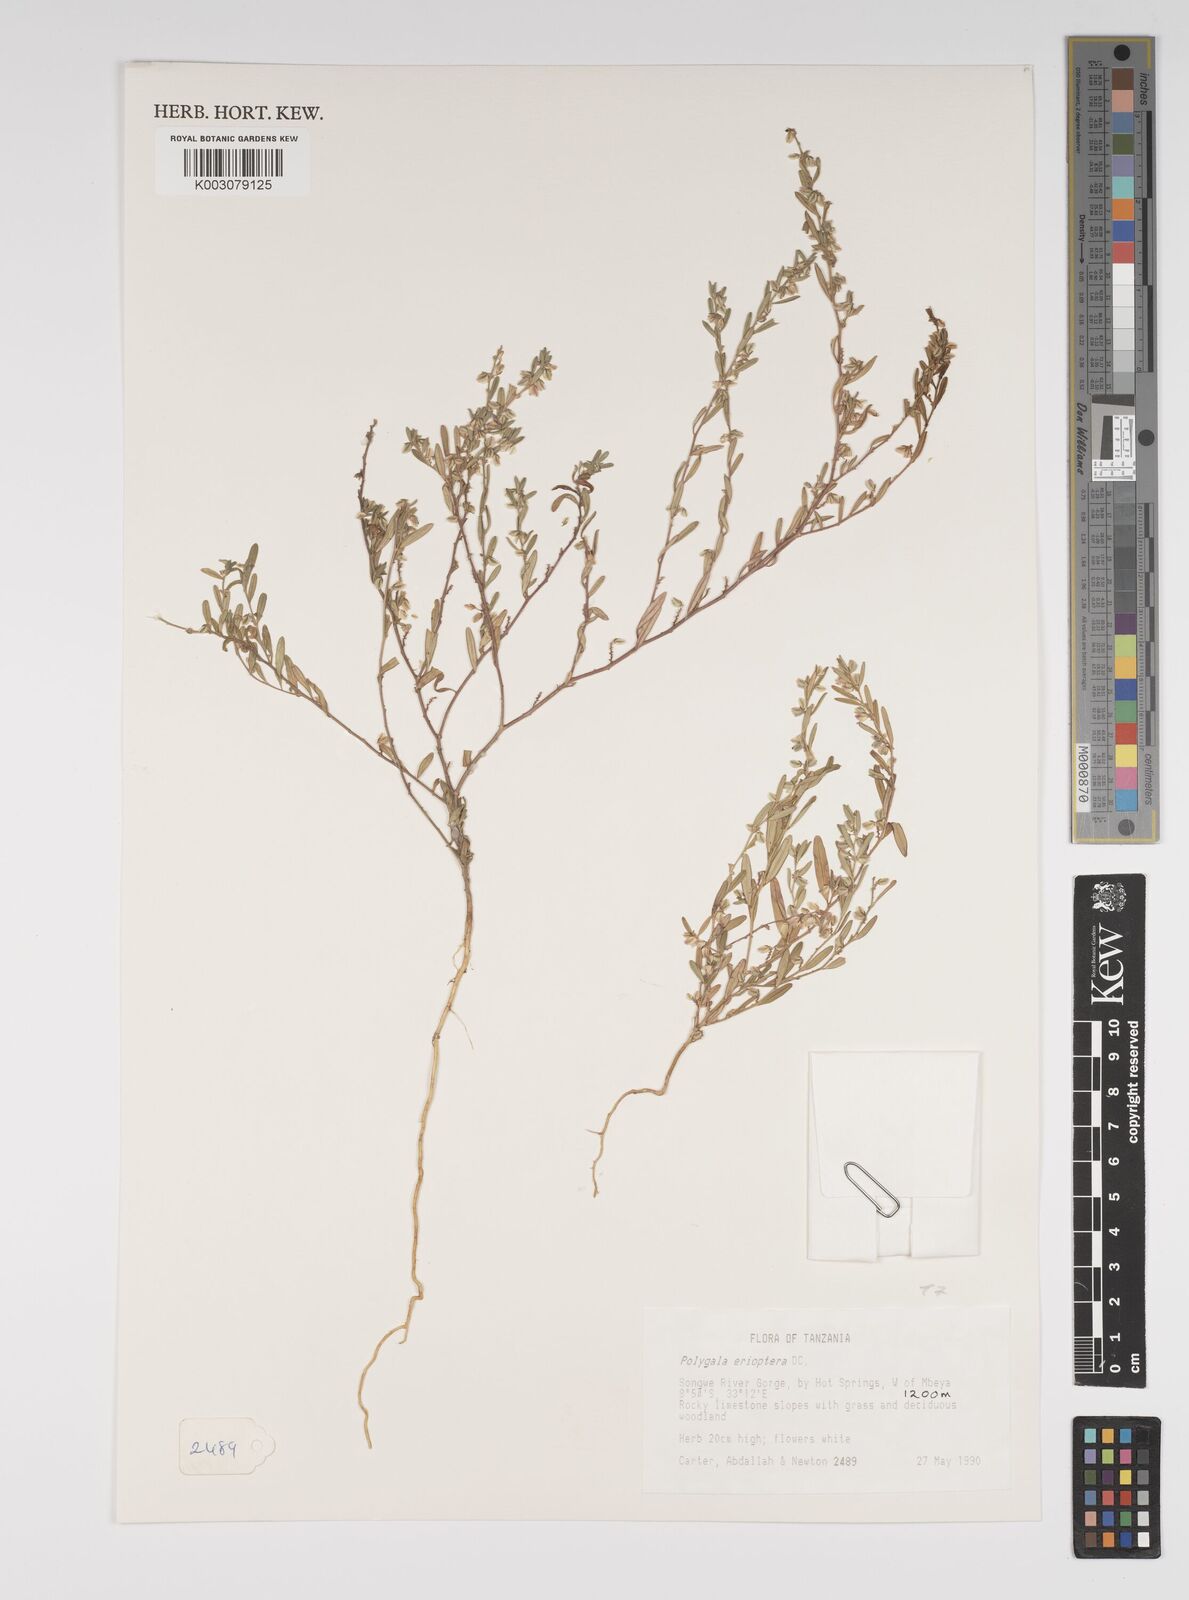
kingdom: Plantae
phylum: Tracheophyta
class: Magnoliopsida
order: Fabales
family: Polygalaceae
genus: Polygala
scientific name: Polygala erioptera
